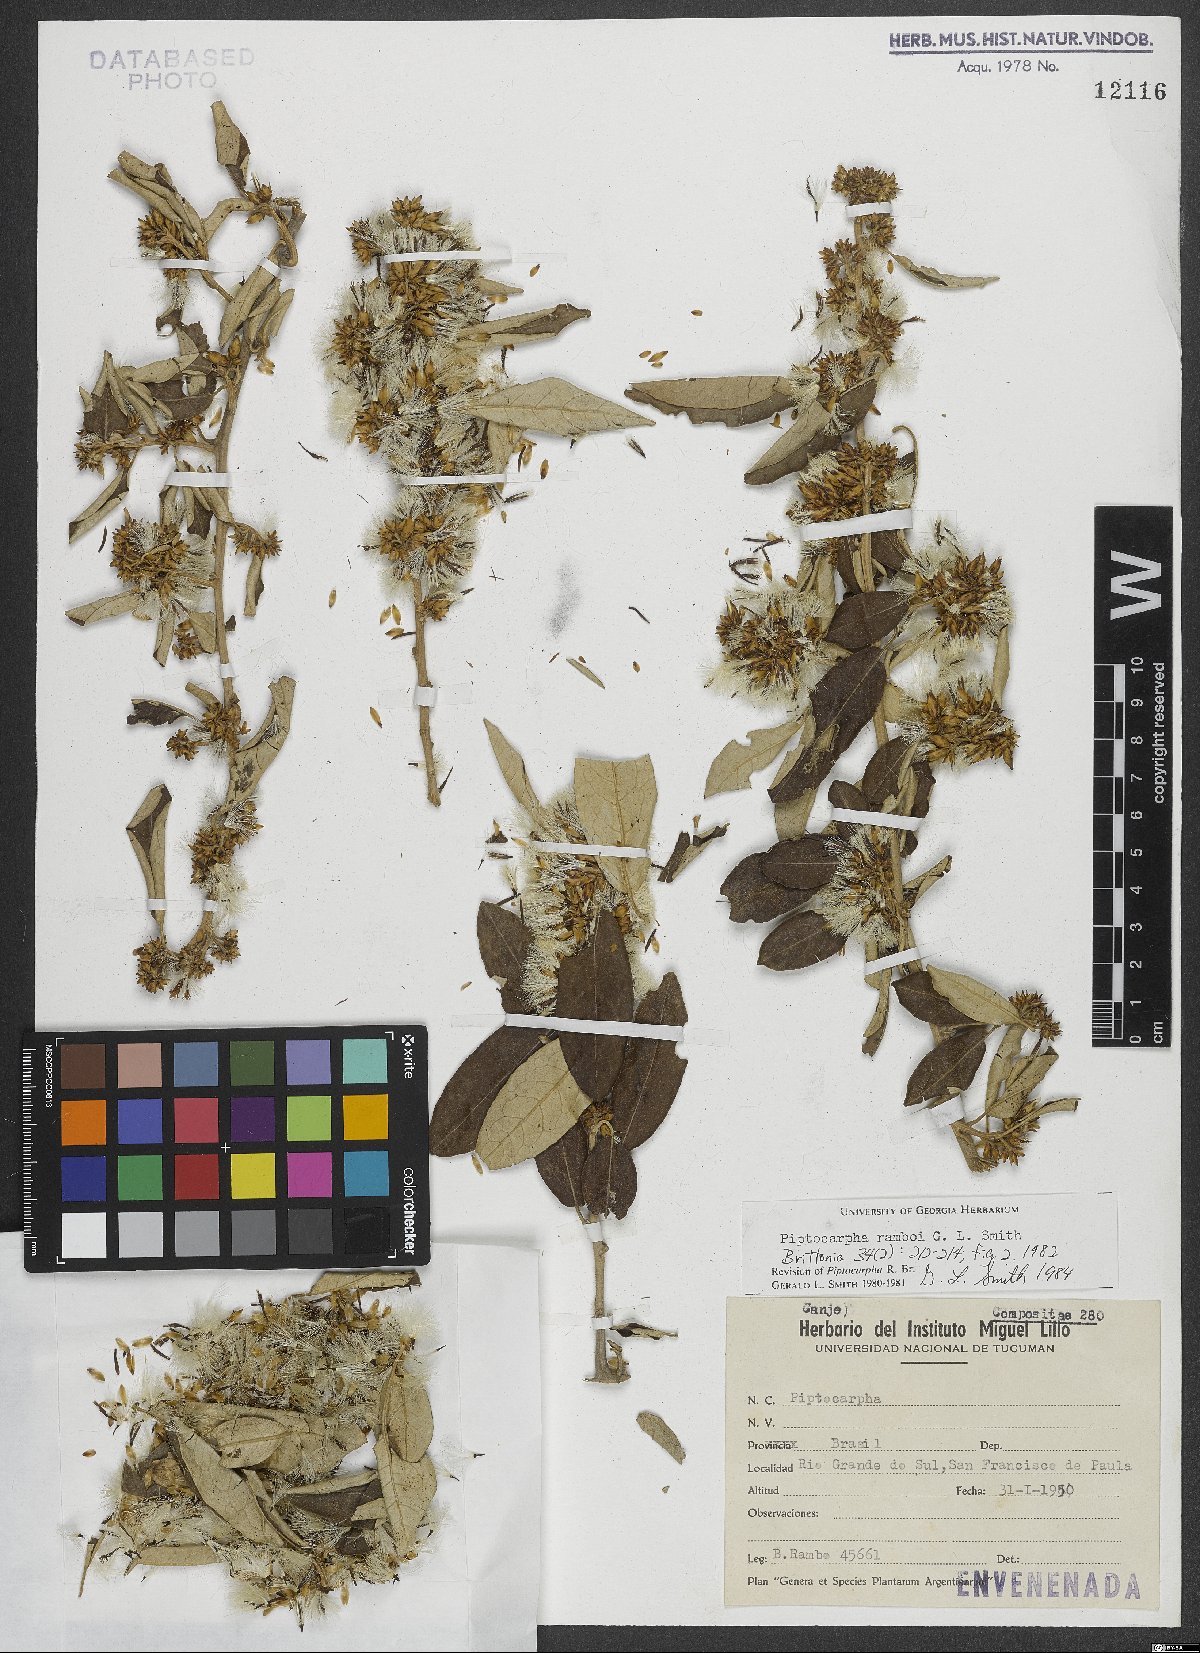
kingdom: Plantae
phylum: Tracheophyta
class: Magnoliopsida
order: Asterales
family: Asteraceae
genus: Piptocarpha
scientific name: Piptocarpha ramboi
